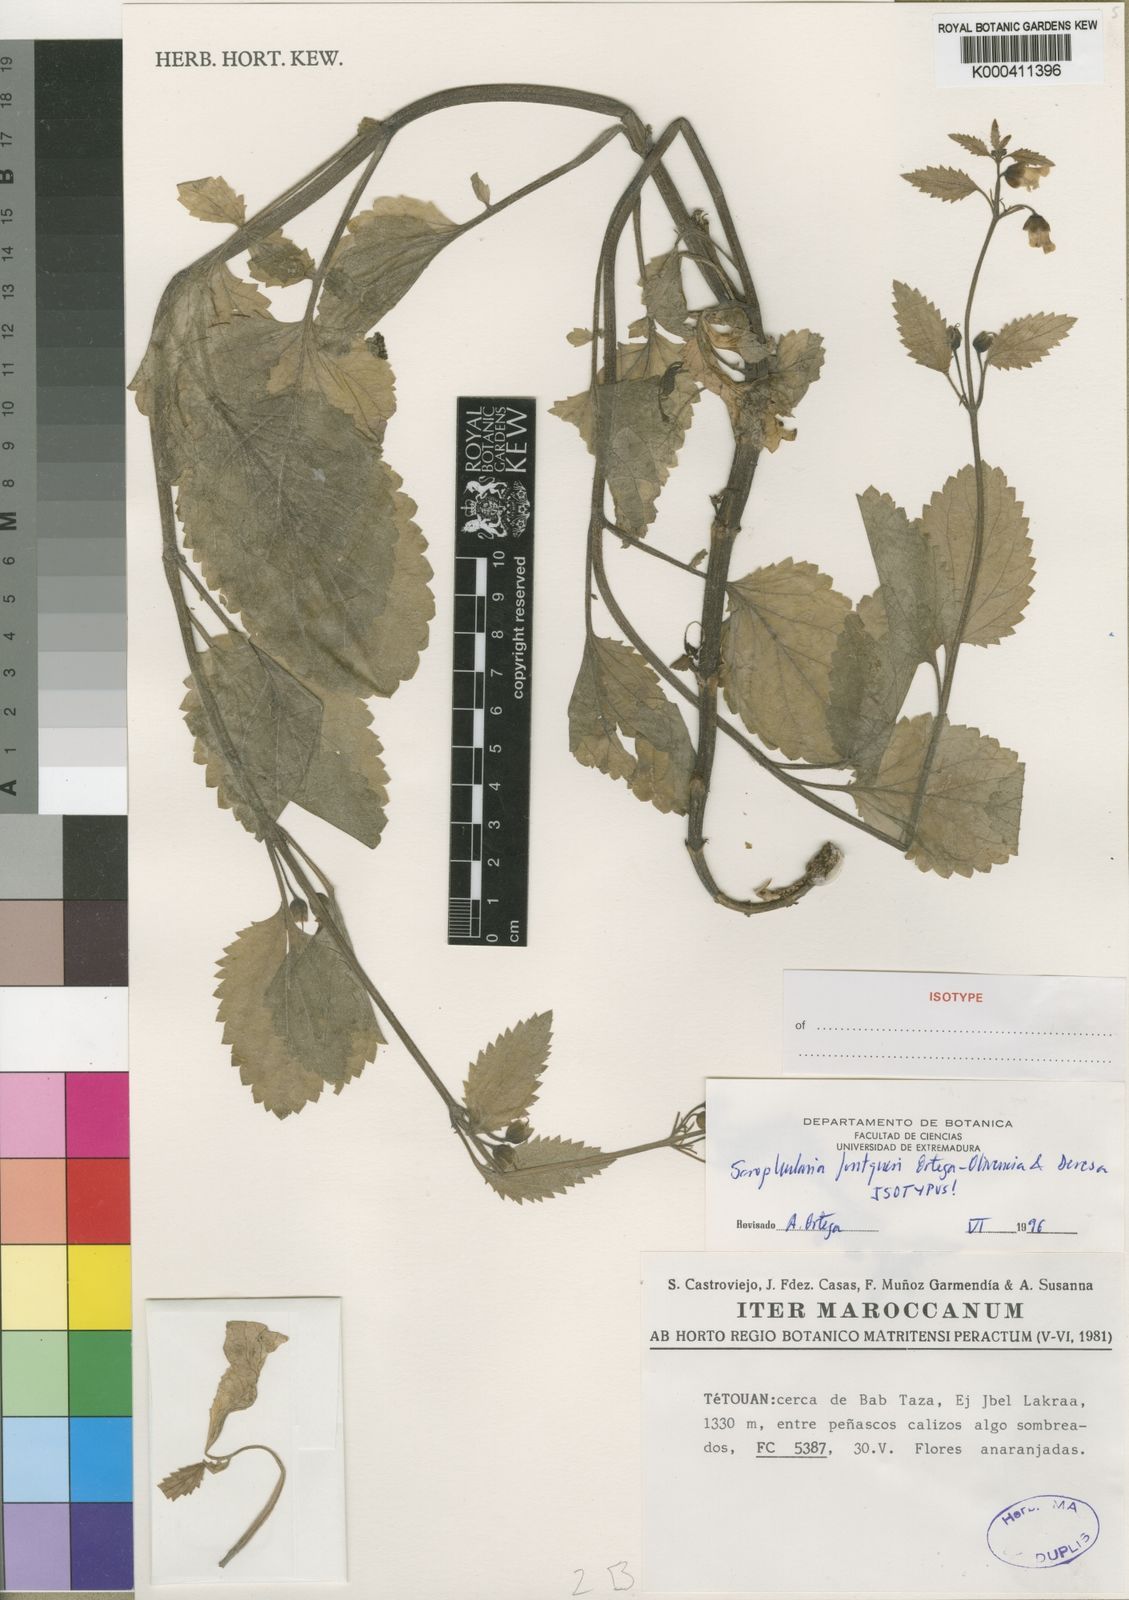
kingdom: Plantae
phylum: Tracheophyta
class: Magnoliopsida
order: Lamiales
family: Scrophulariaceae
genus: Scrophularia
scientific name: Scrophularia fontqueri
